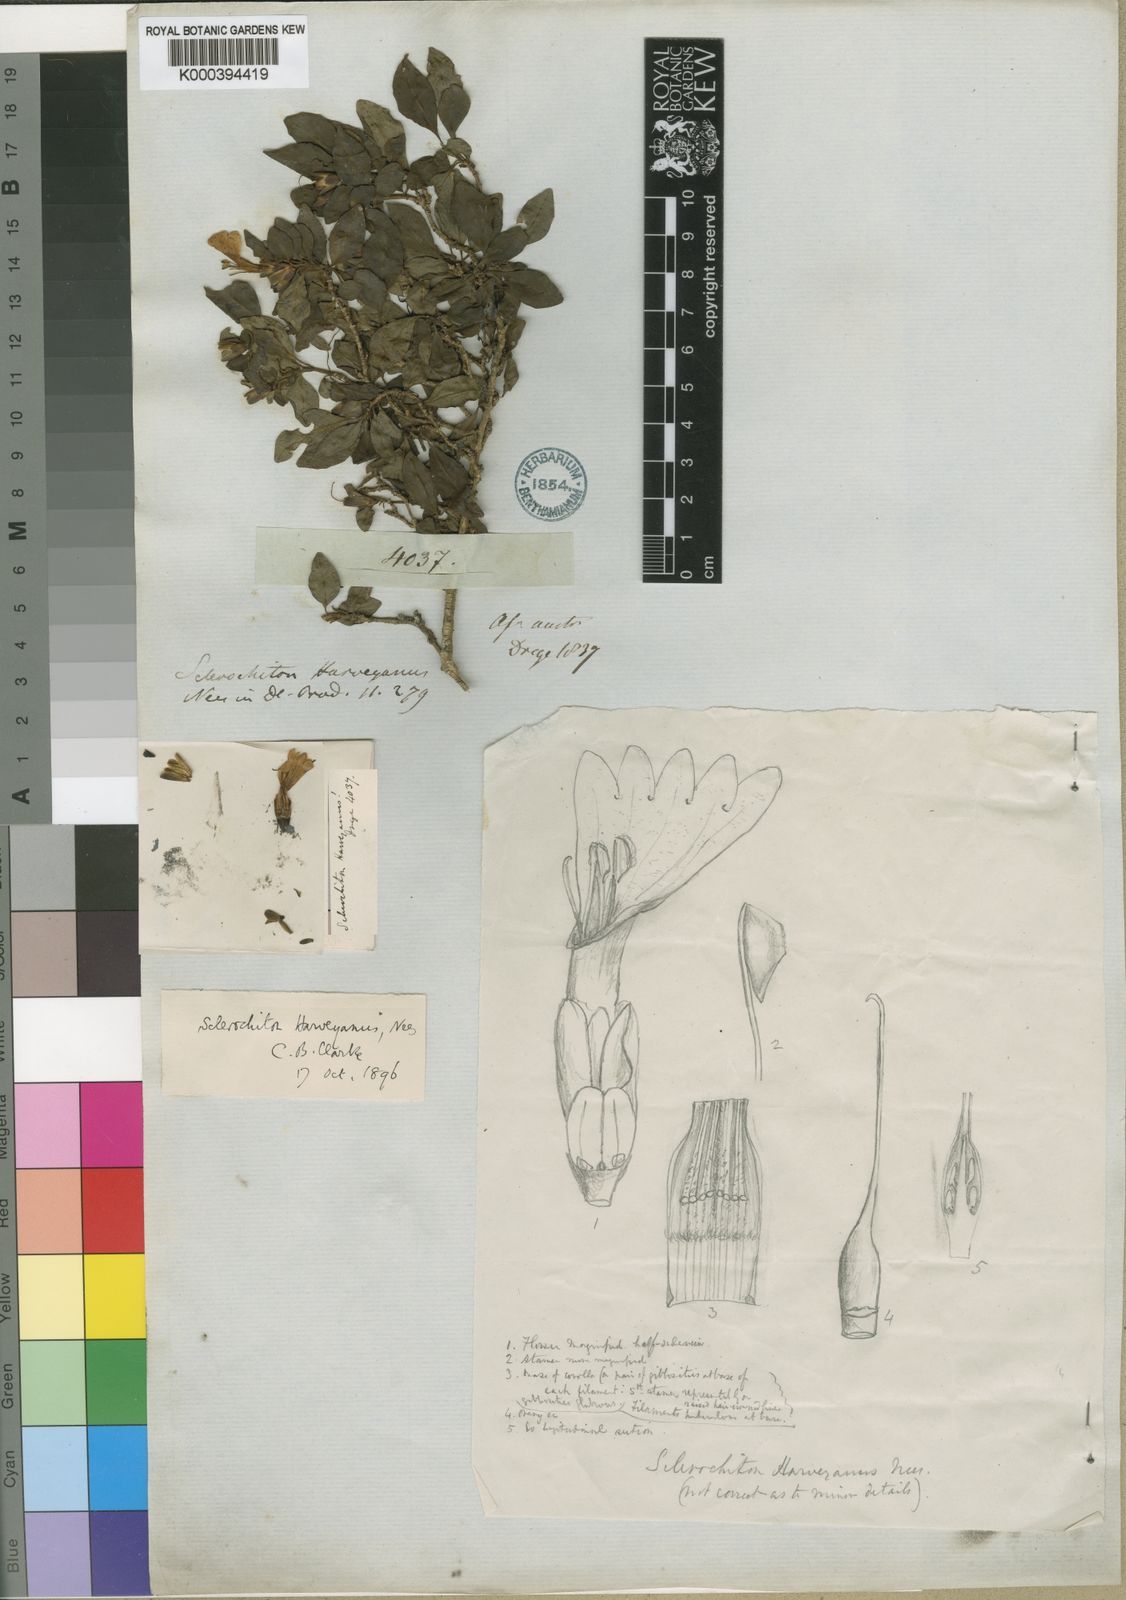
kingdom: Plantae
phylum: Tracheophyta
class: Magnoliopsida
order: Lamiales
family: Acanthaceae
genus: Sclerochiton
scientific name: Sclerochiton harveyanus
